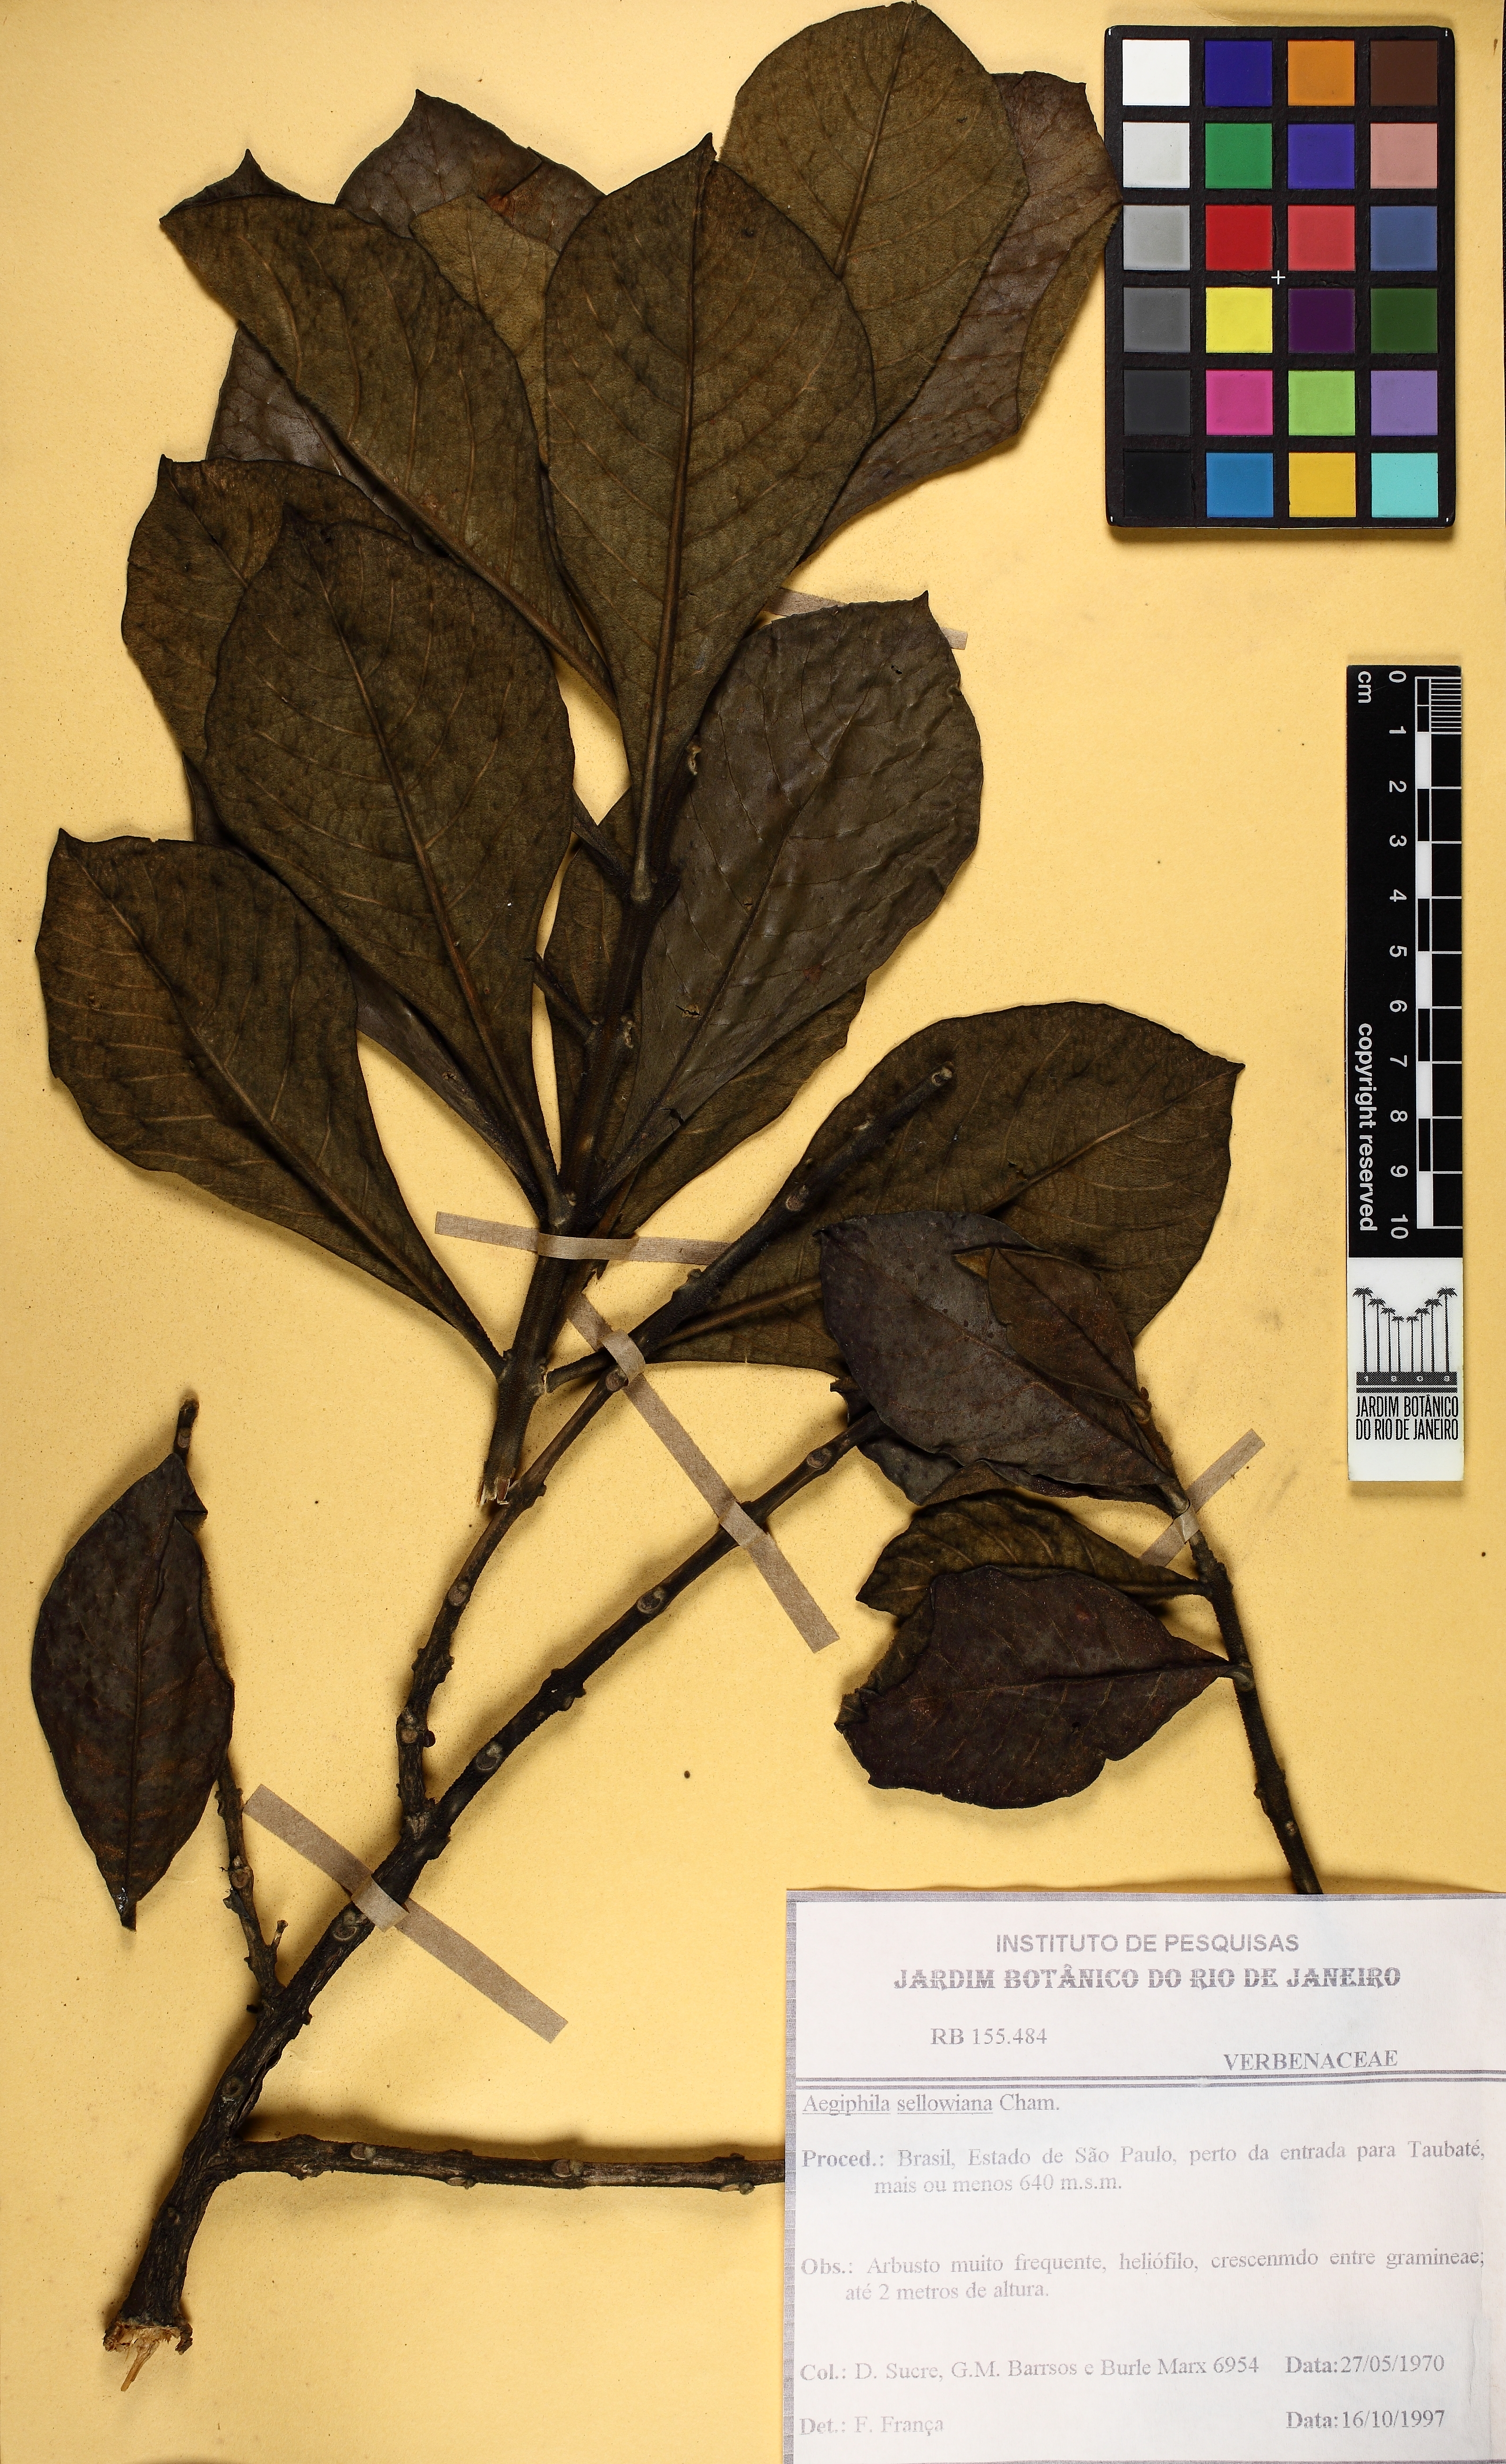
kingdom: Plantae
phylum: Tracheophyta
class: Magnoliopsida
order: Lamiales
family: Lamiaceae
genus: Aegiphila
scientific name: Aegiphila verticillata
